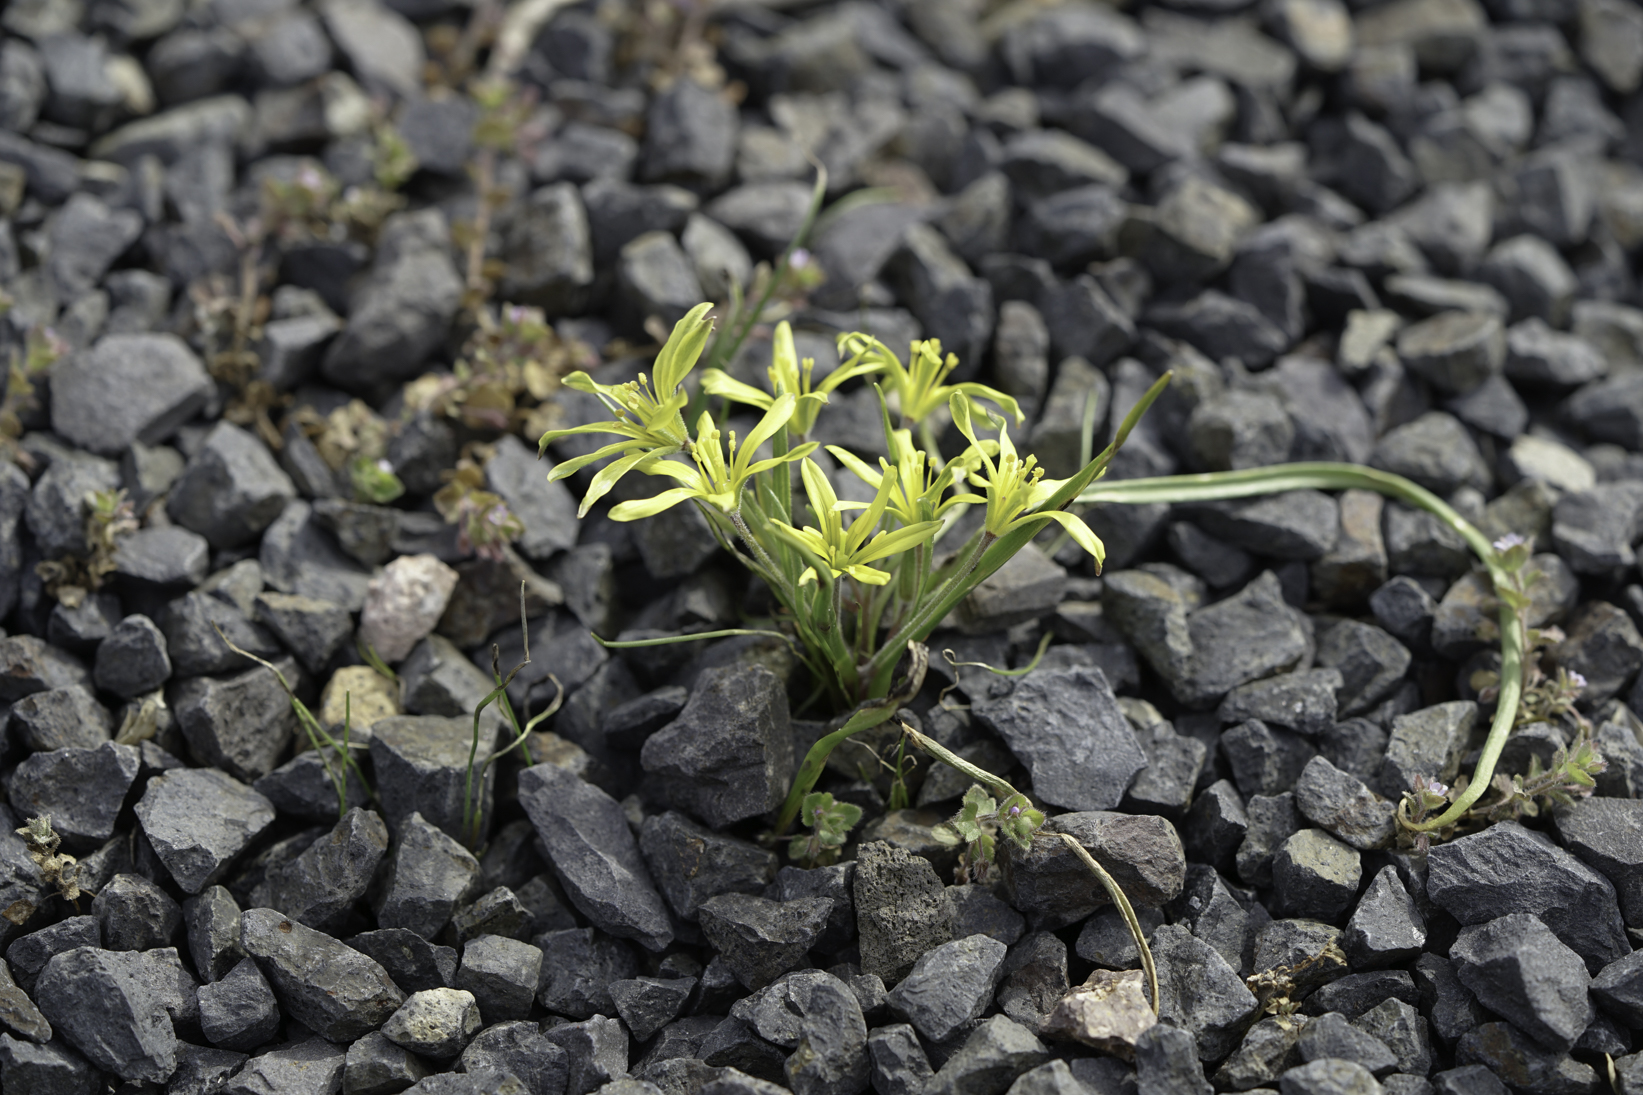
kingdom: Plantae
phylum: Tracheophyta
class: Liliopsida
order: Liliales
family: Liliaceae
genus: Gagea
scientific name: Gagea villosa
